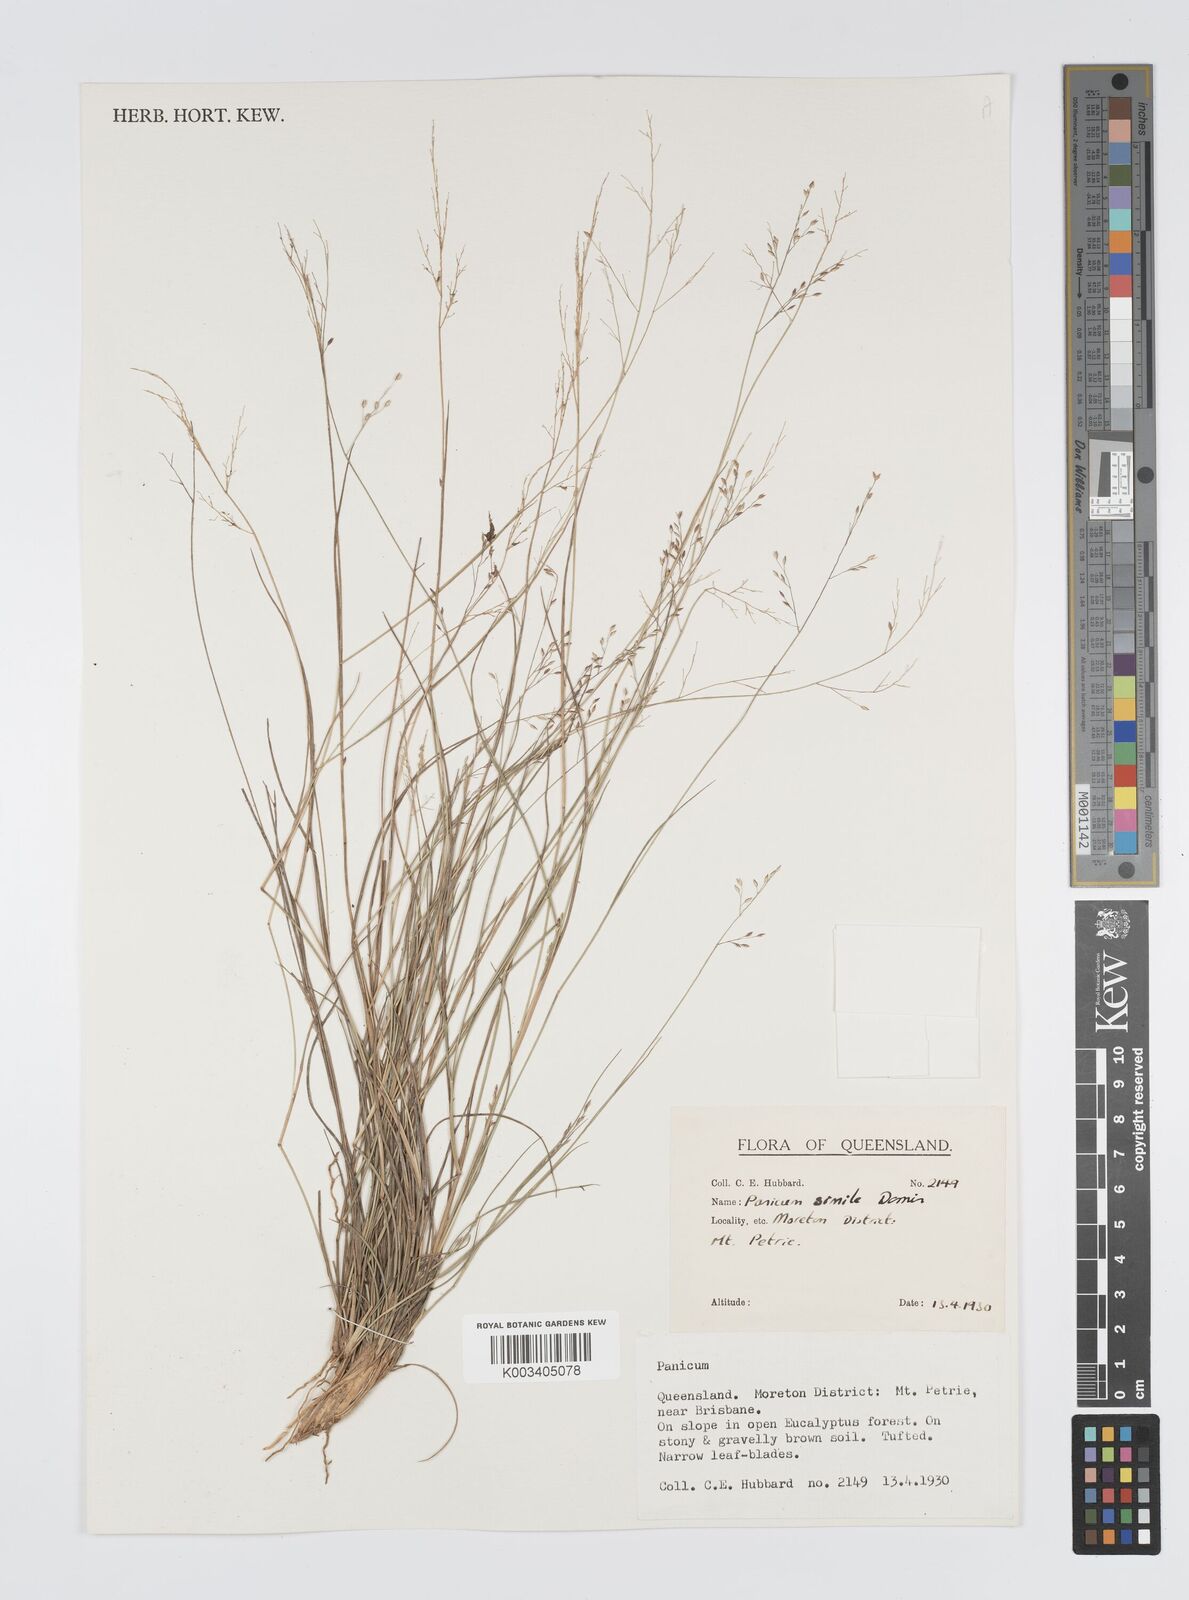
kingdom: Plantae
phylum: Tracheophyta
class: Liliopsida
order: Poales
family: Poaceae
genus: Panicum
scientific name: Panicum simile
